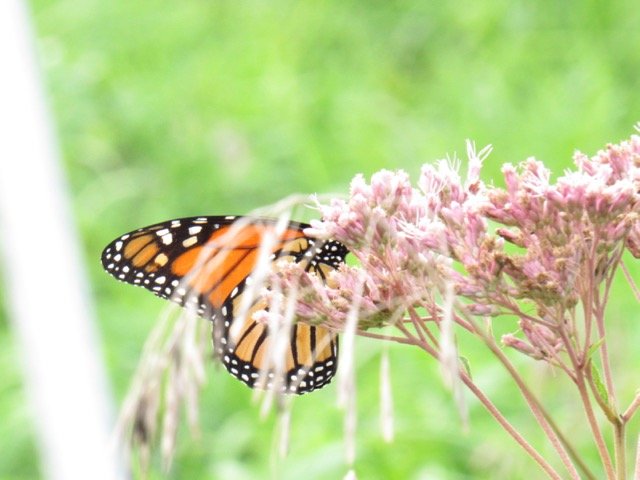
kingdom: Animalia
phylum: Arthropoda
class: Insecta
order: Lepidoptera
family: Nymphalidae
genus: Danaus
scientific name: Danaus plexippus
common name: Monarch
